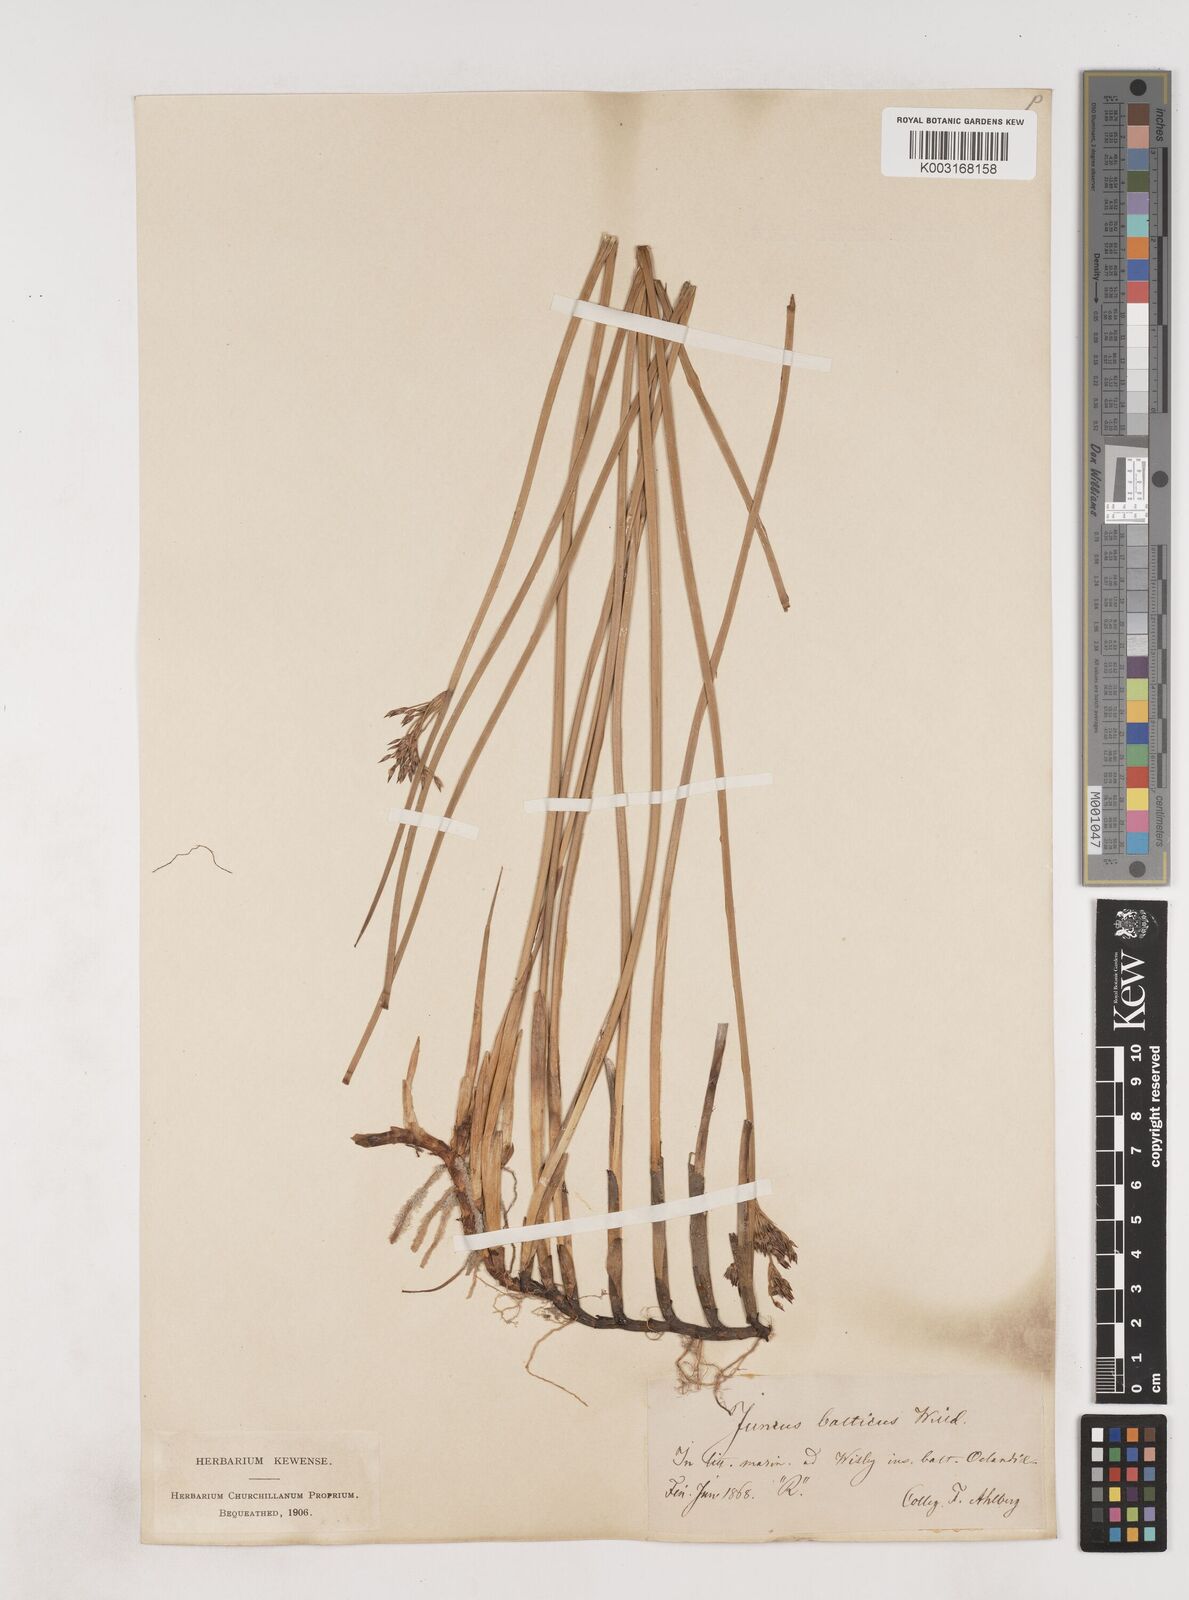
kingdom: Plantae
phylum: Tracheophyta
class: Liliopsida
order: Poales
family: Juncaceae
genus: Juncus
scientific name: Juncus balticus
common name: Baltic rush
